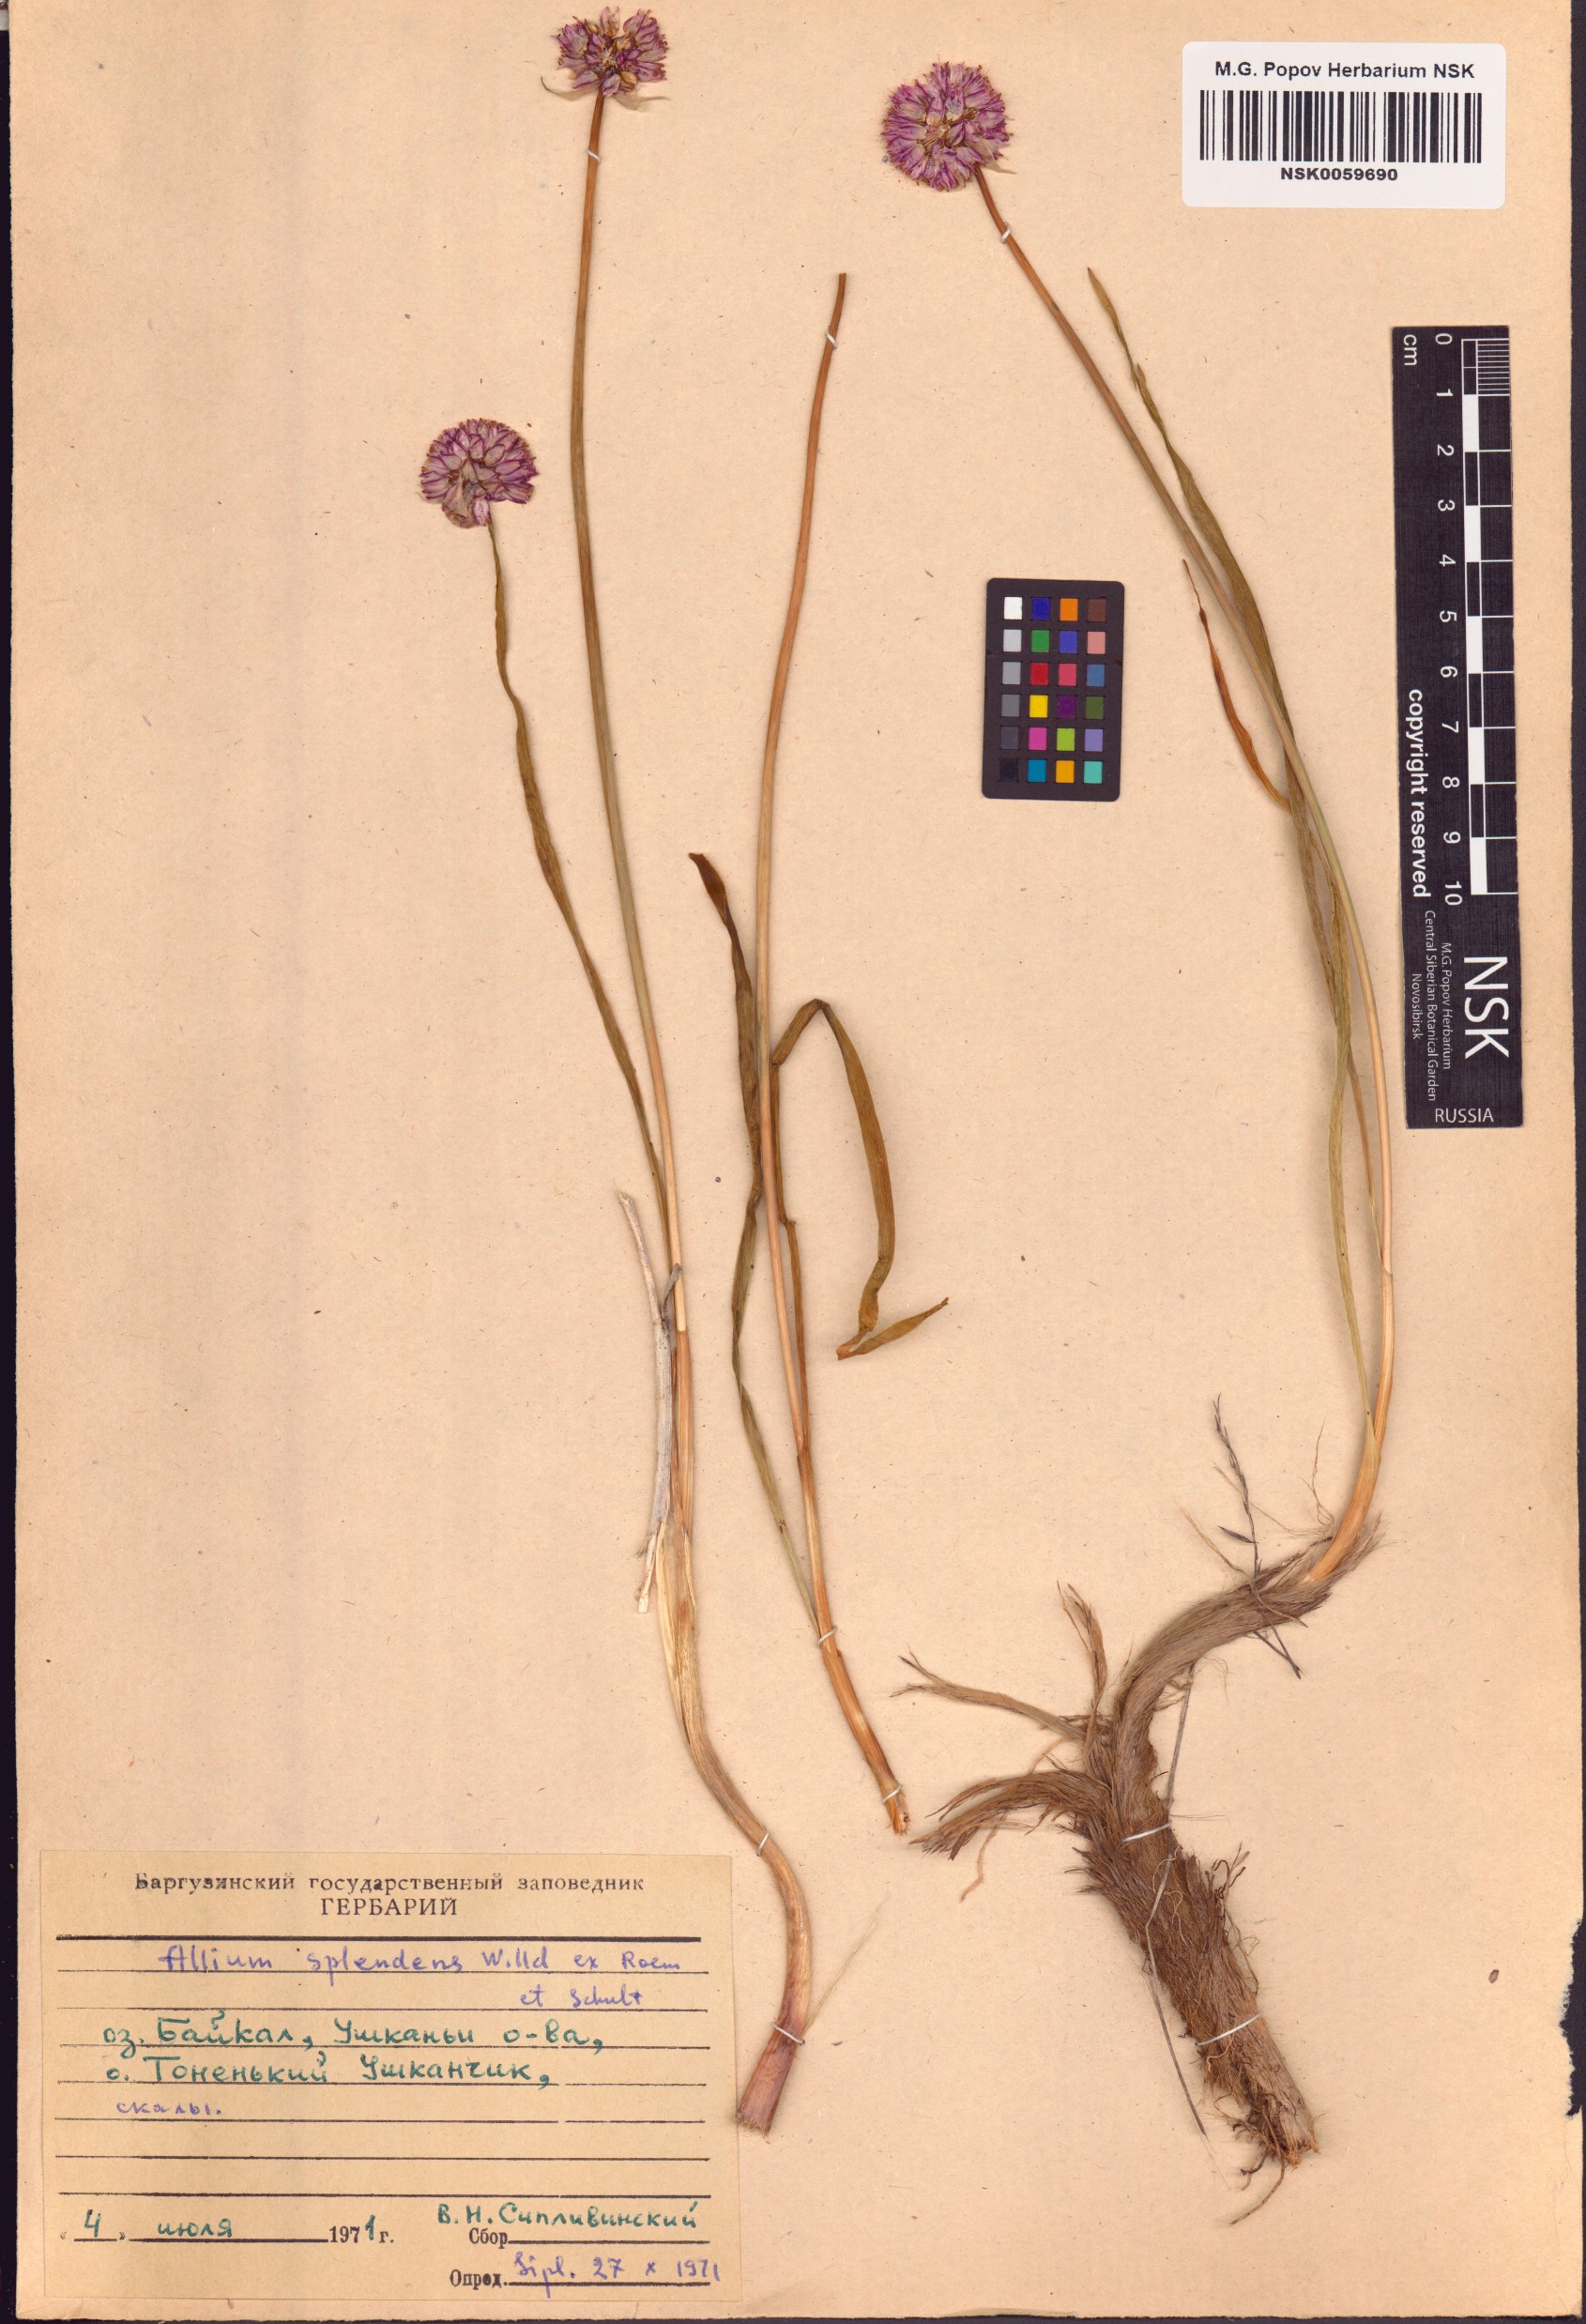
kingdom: Plantae
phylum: Tracheophyta
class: Liliopsida
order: Asparagales
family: Amaryllidaceae
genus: Allium
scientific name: Allium splendens
